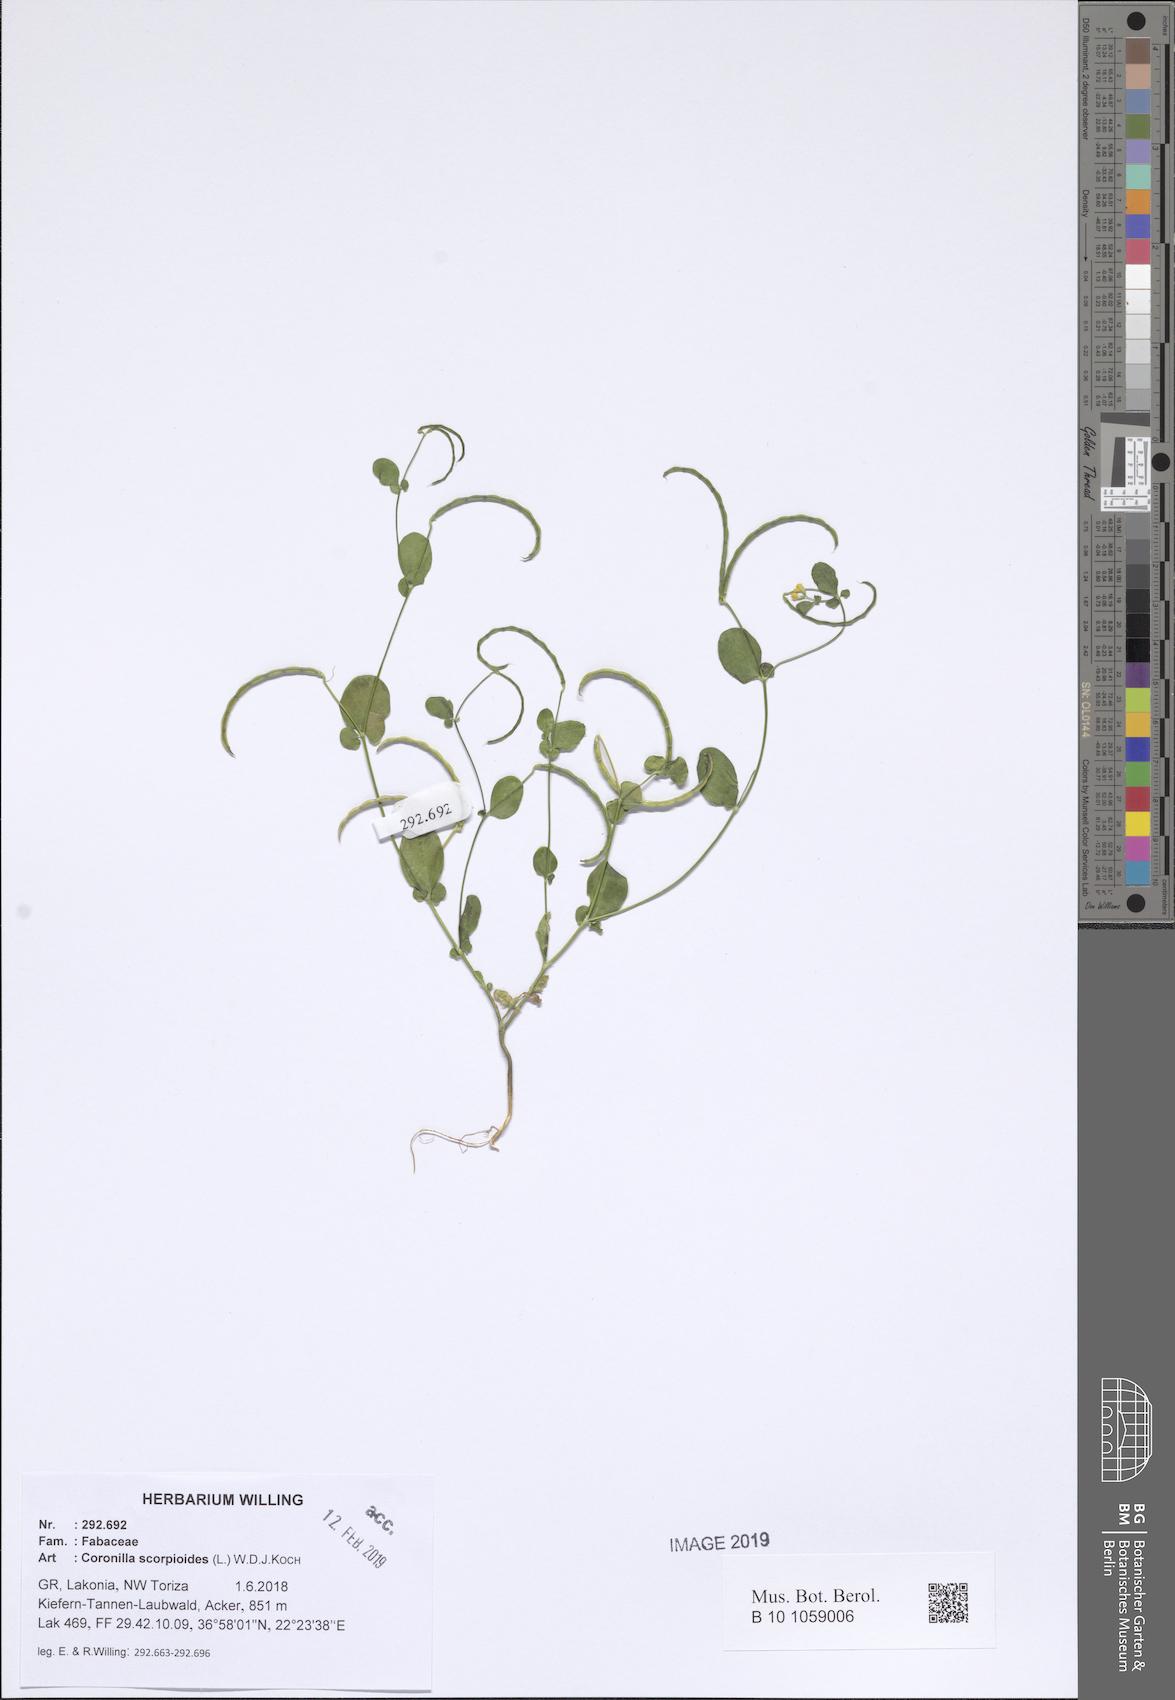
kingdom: Plantae
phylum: Tracheophyta
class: Magnoliopsida
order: Fabales
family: Fabaceae
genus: Coronilla
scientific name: Coronilla scorpioides
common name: Annual scorpion-vetch
